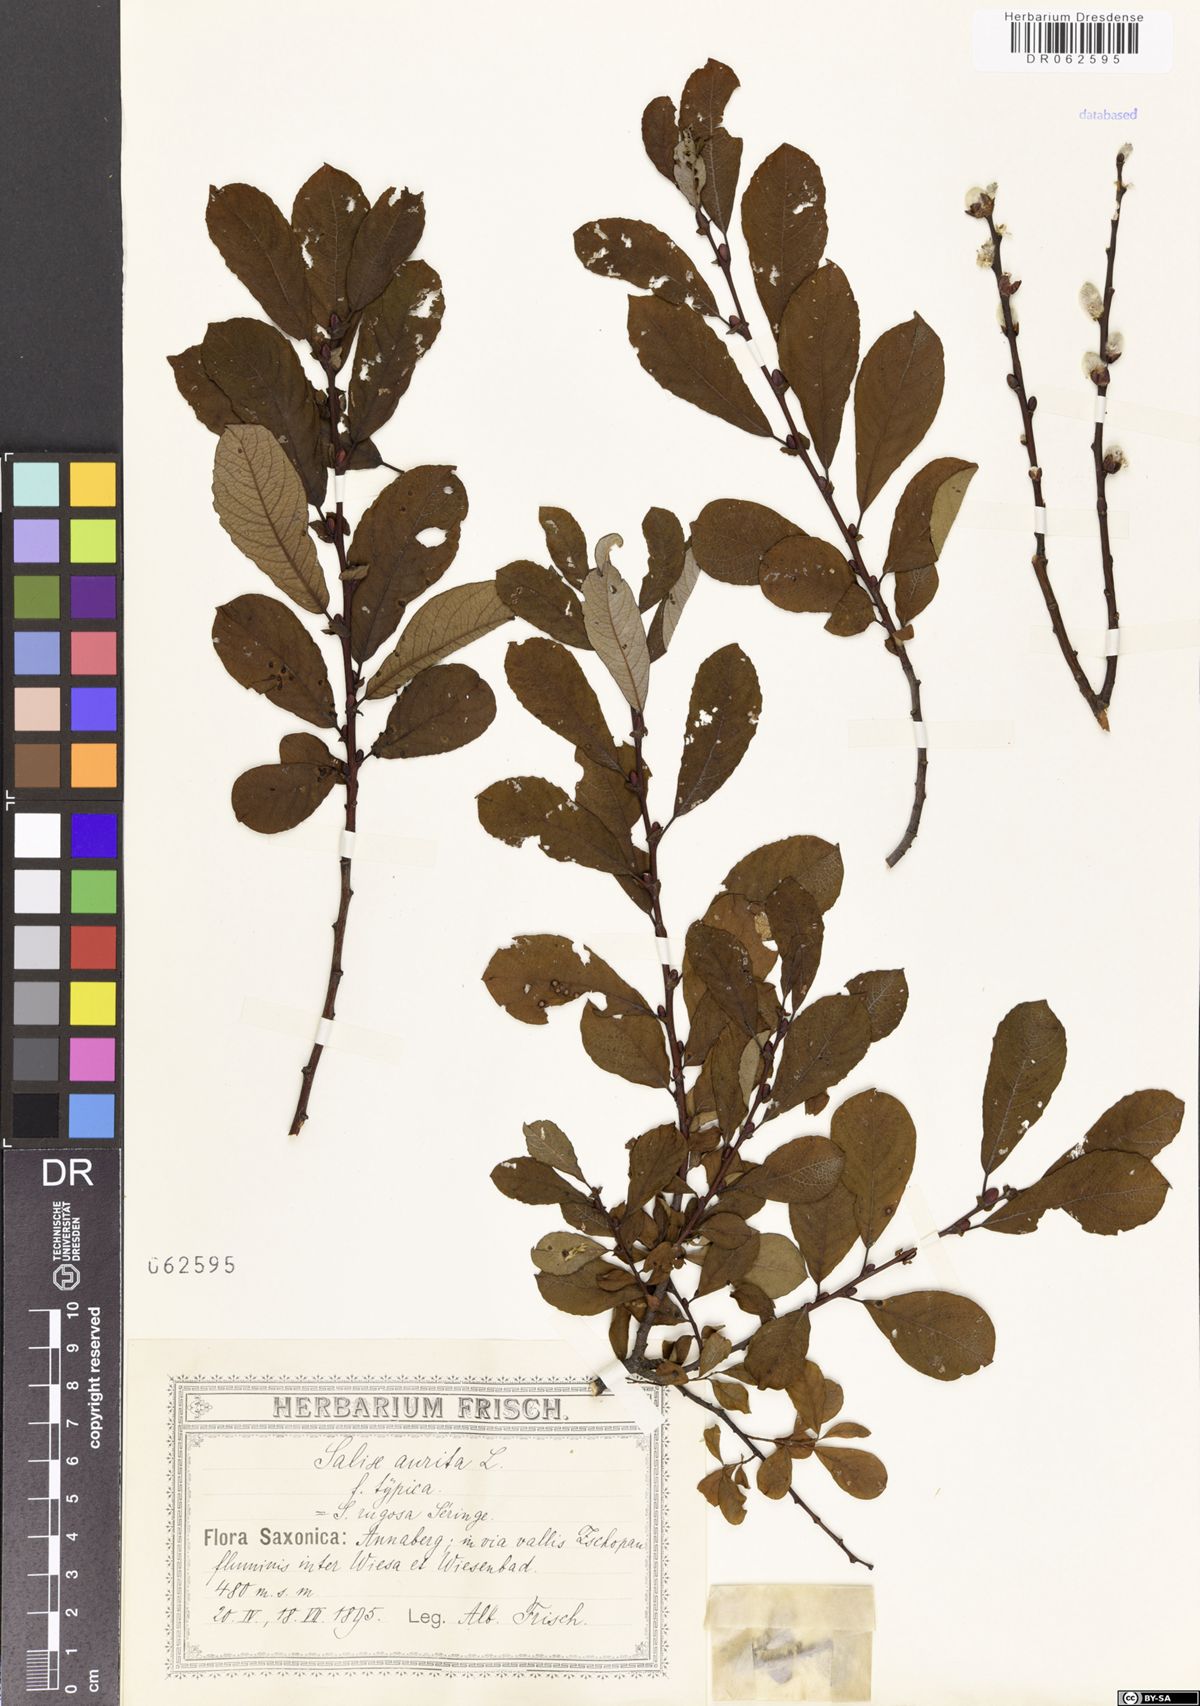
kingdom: Plantae
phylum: Tracheophyta
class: Magnoliopsida
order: Malpighiales
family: Salicaceae
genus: Salix
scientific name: Salix aurita
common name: Eared willow
